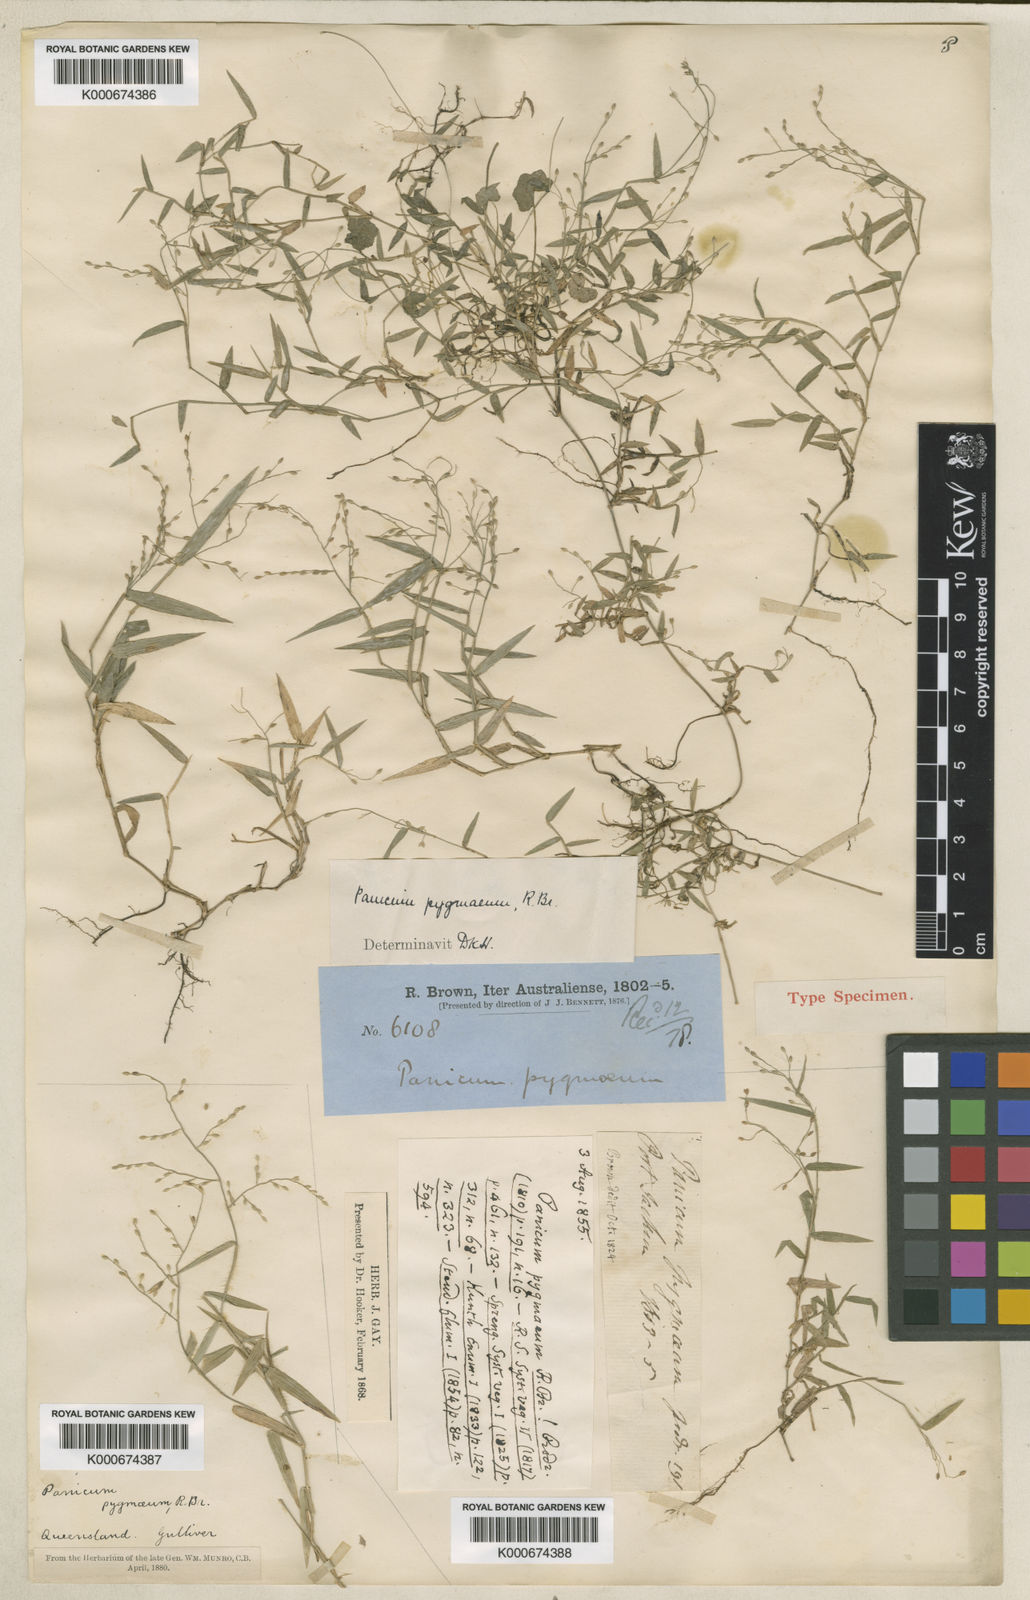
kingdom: Plantae
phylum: Tracheophyta
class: Liliopsida
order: Poales
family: Poaceae
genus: Panicum
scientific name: Panicum pygmaeum
